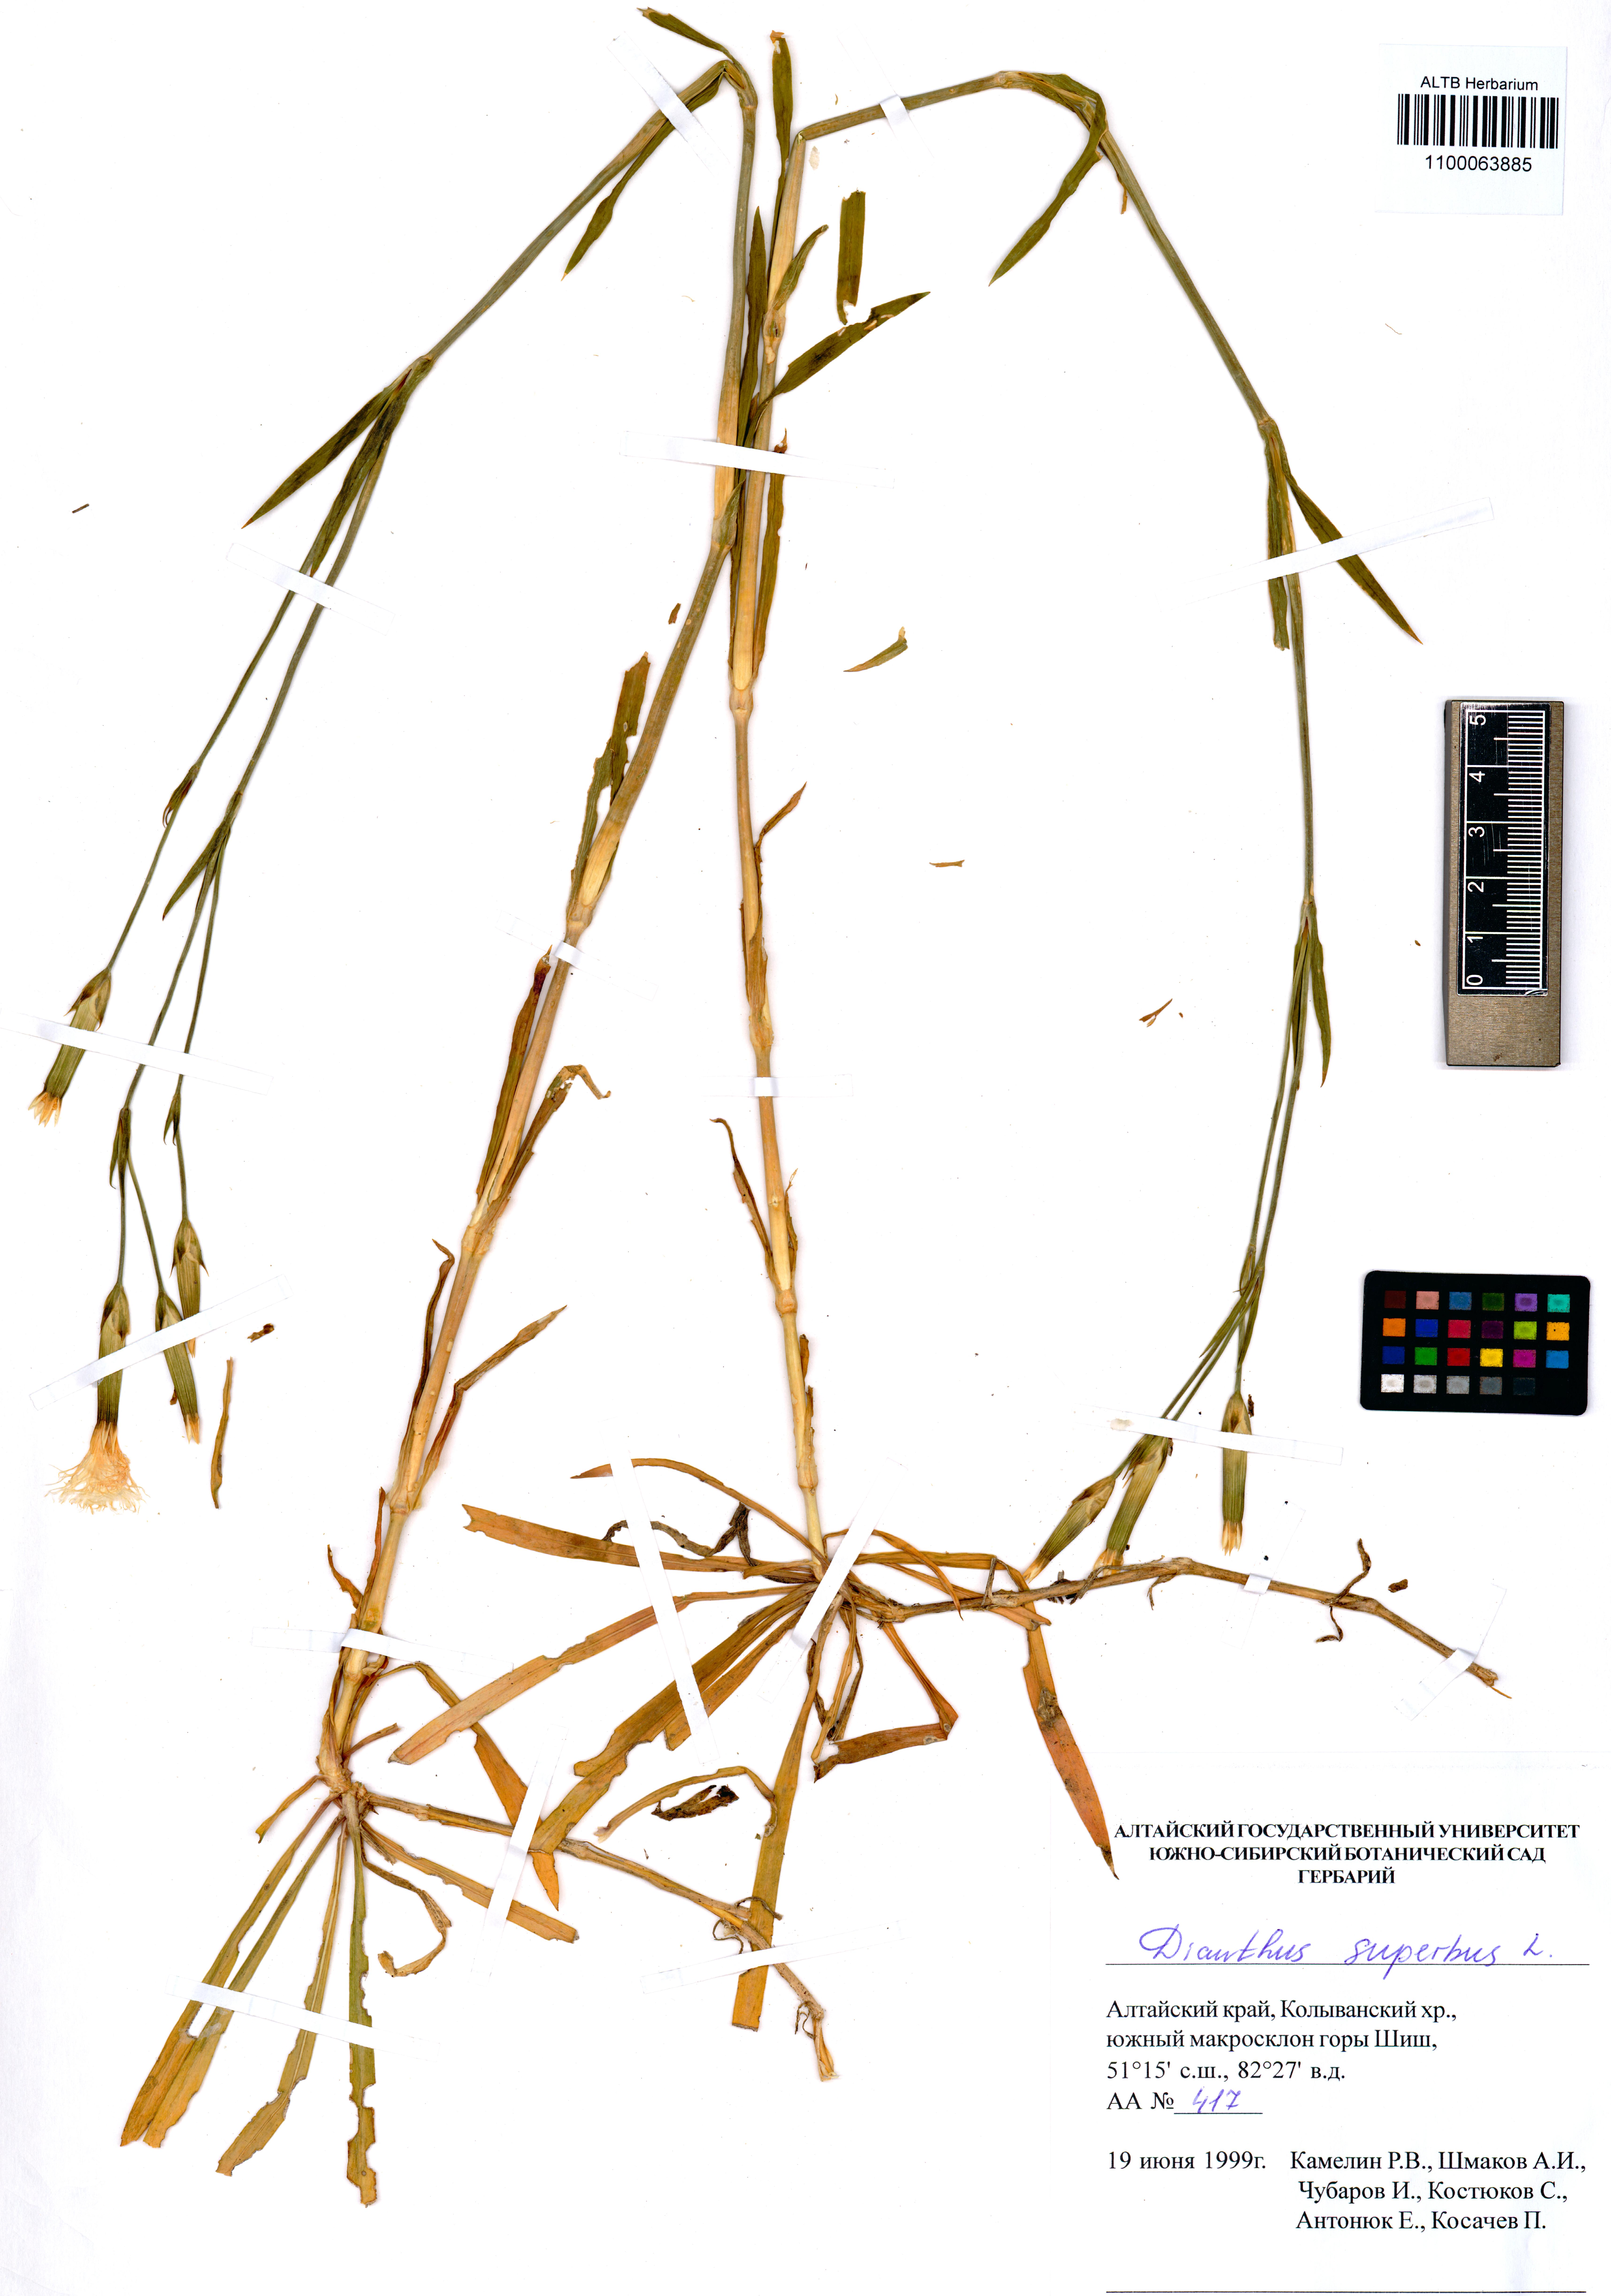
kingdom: Plantae
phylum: Tracheophyta
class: Magnoliopsida
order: Caryophyllales
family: Caryophyllaceae
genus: Dianthus
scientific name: Dianthus superbus
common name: Fringed pink
